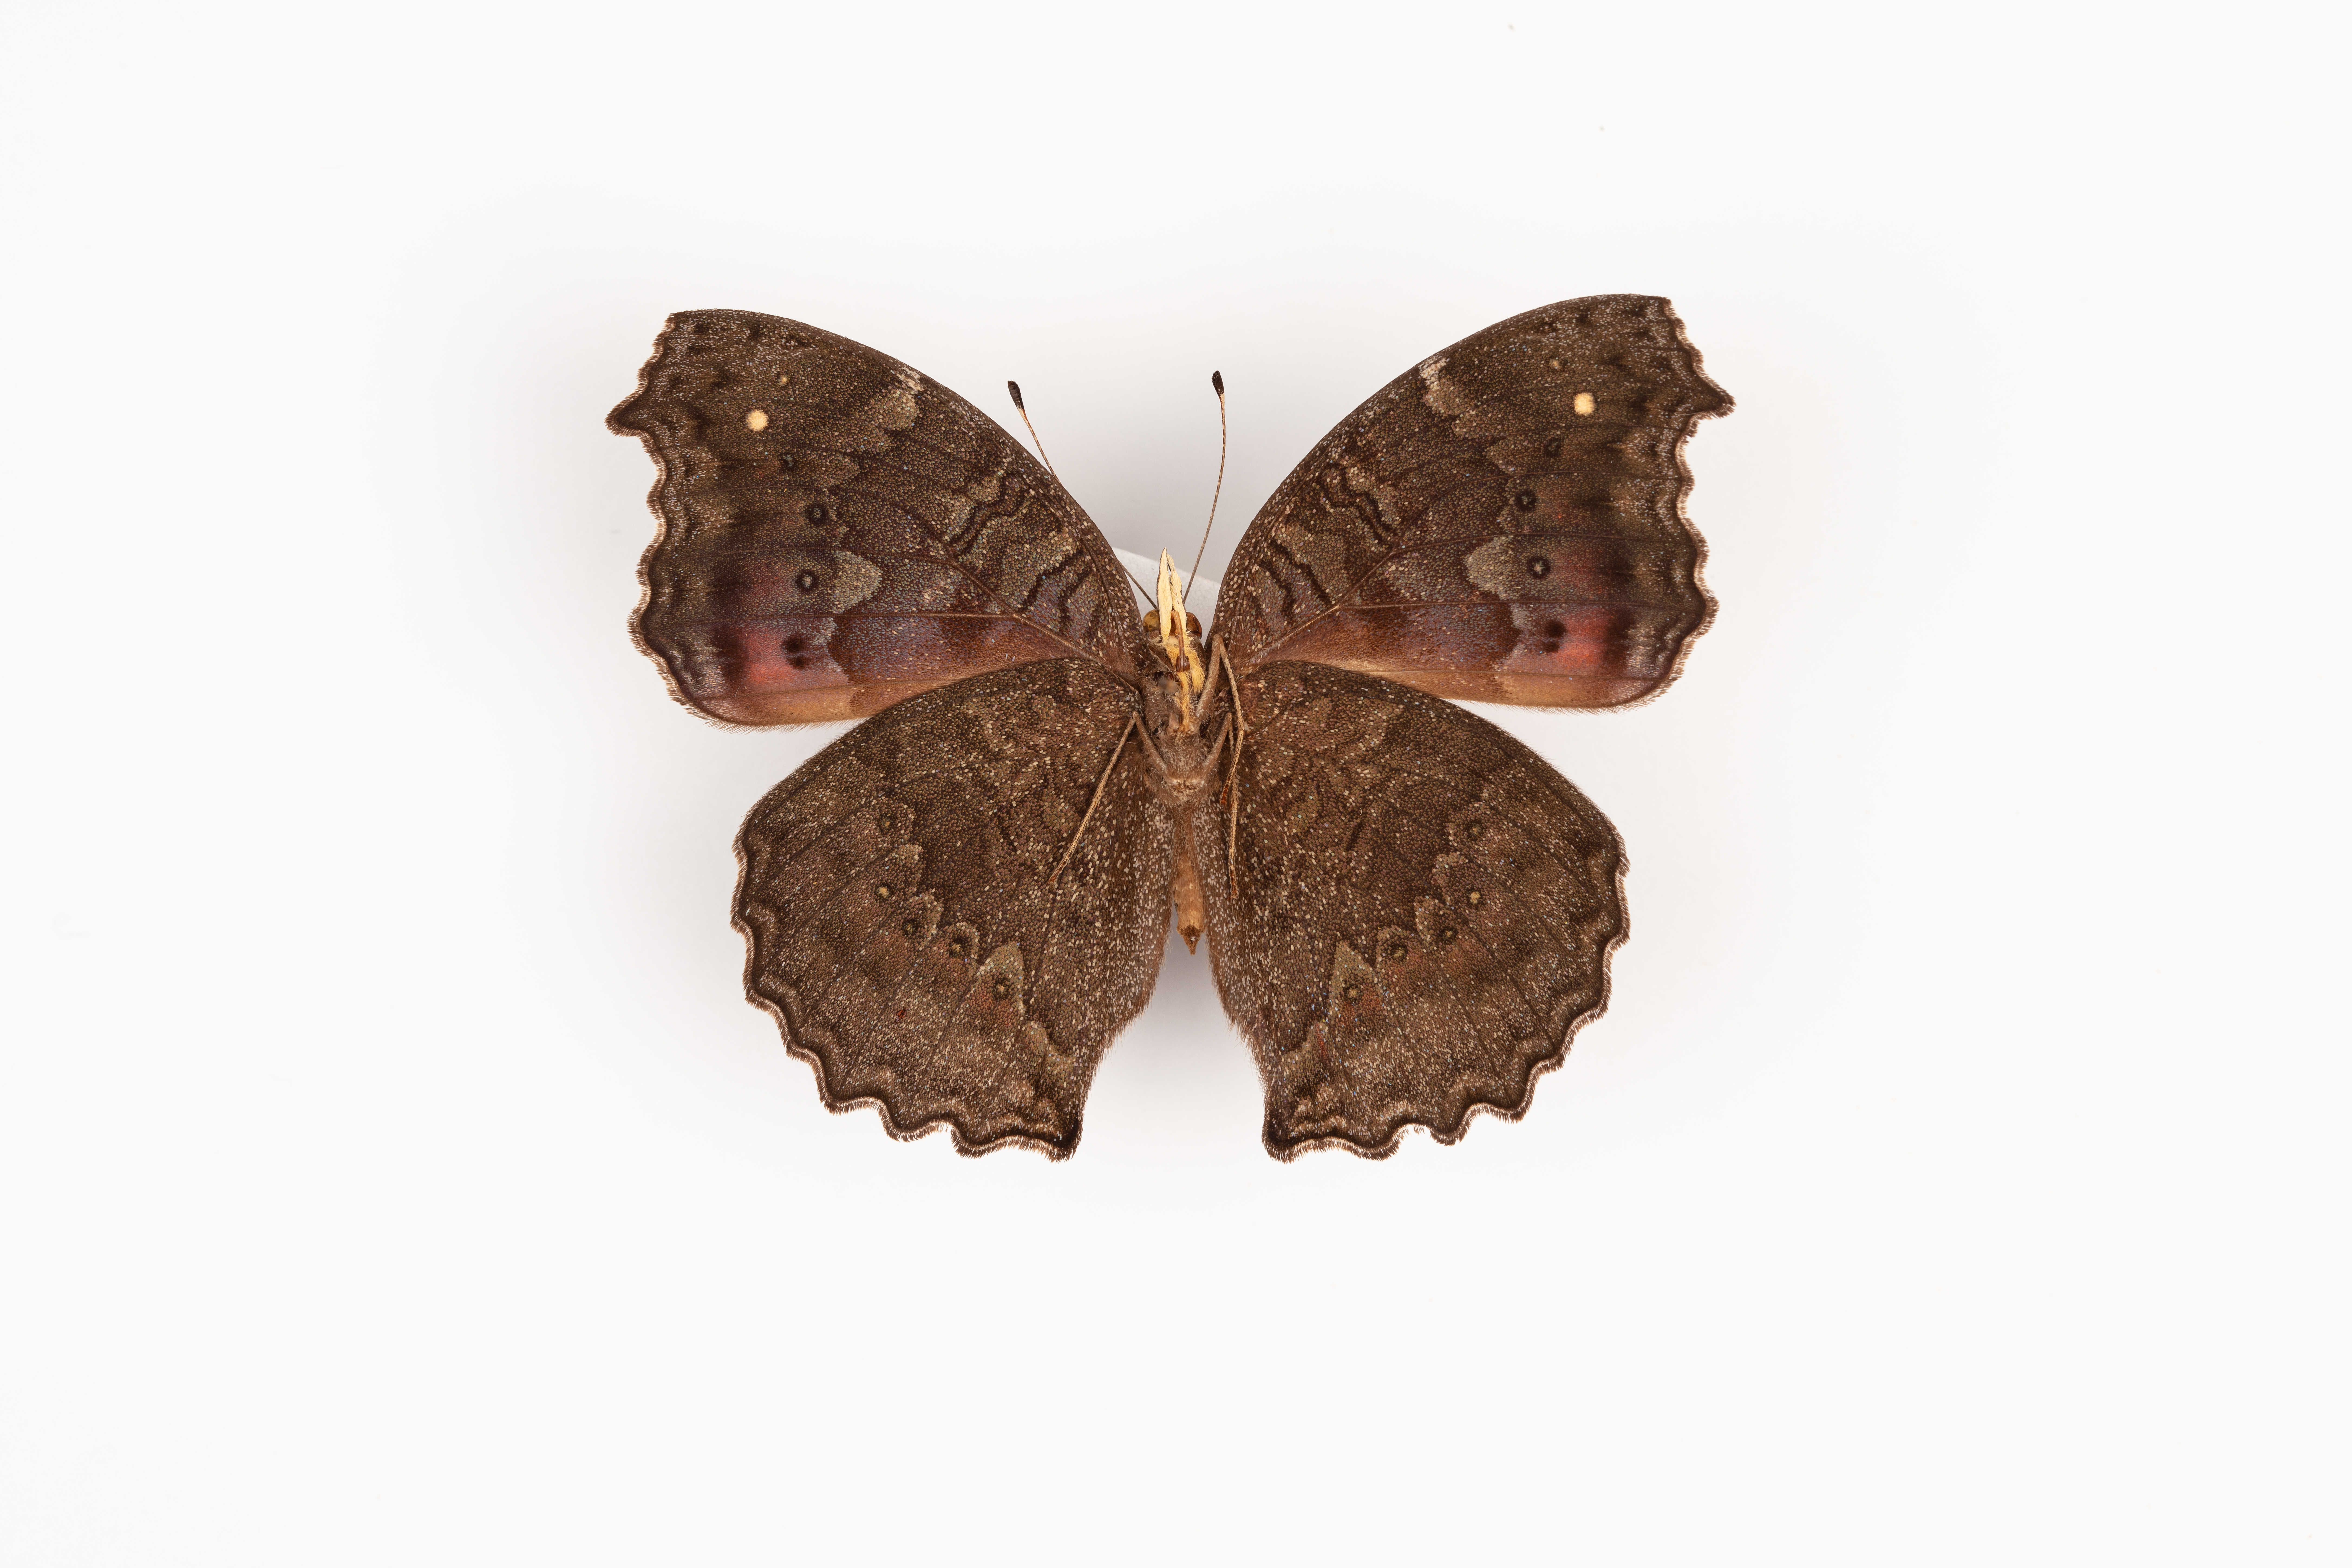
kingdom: Animalia
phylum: Arthropoda
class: Insecta
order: Lepidoptera
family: Nymphalidae
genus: Precis
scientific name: Precis octavia
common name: Gaudy commodore
